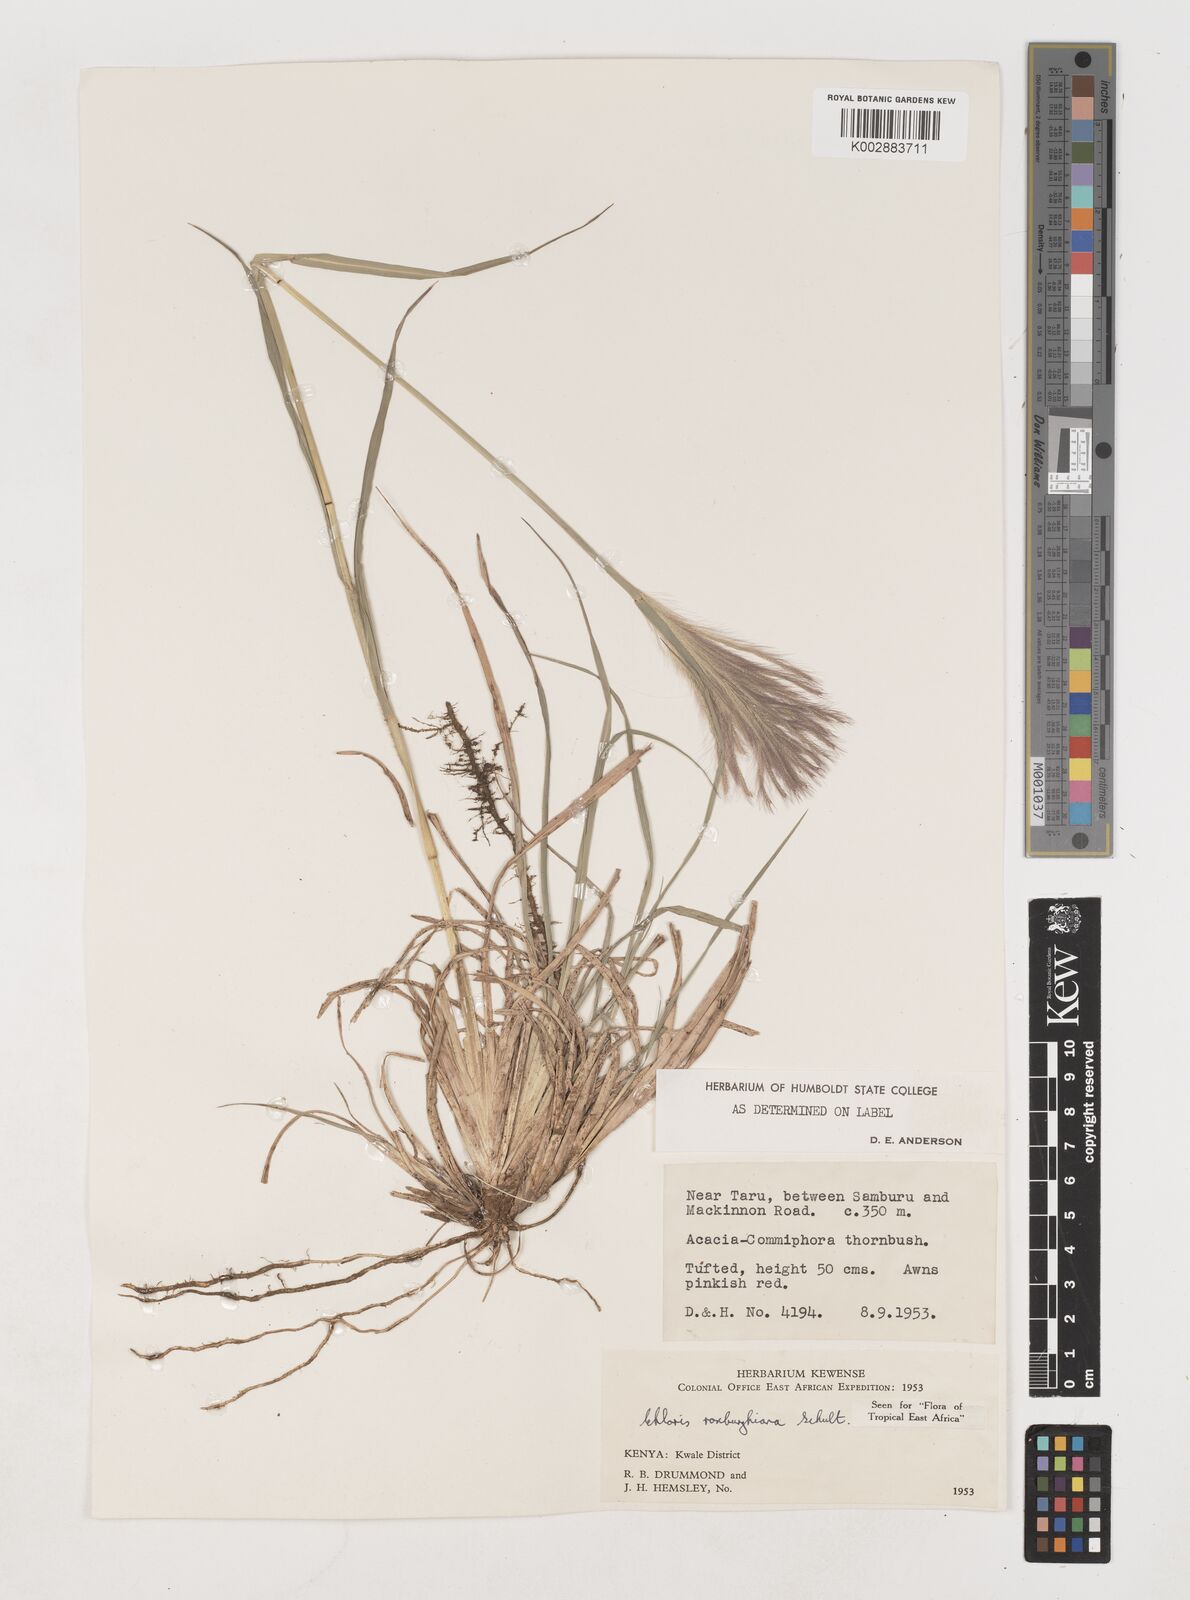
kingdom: Plantae
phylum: Tracheophyta
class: Liliopsida
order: Poales
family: Poaceae
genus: Tetrapogon
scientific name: Tetrapogon roxburghiana
